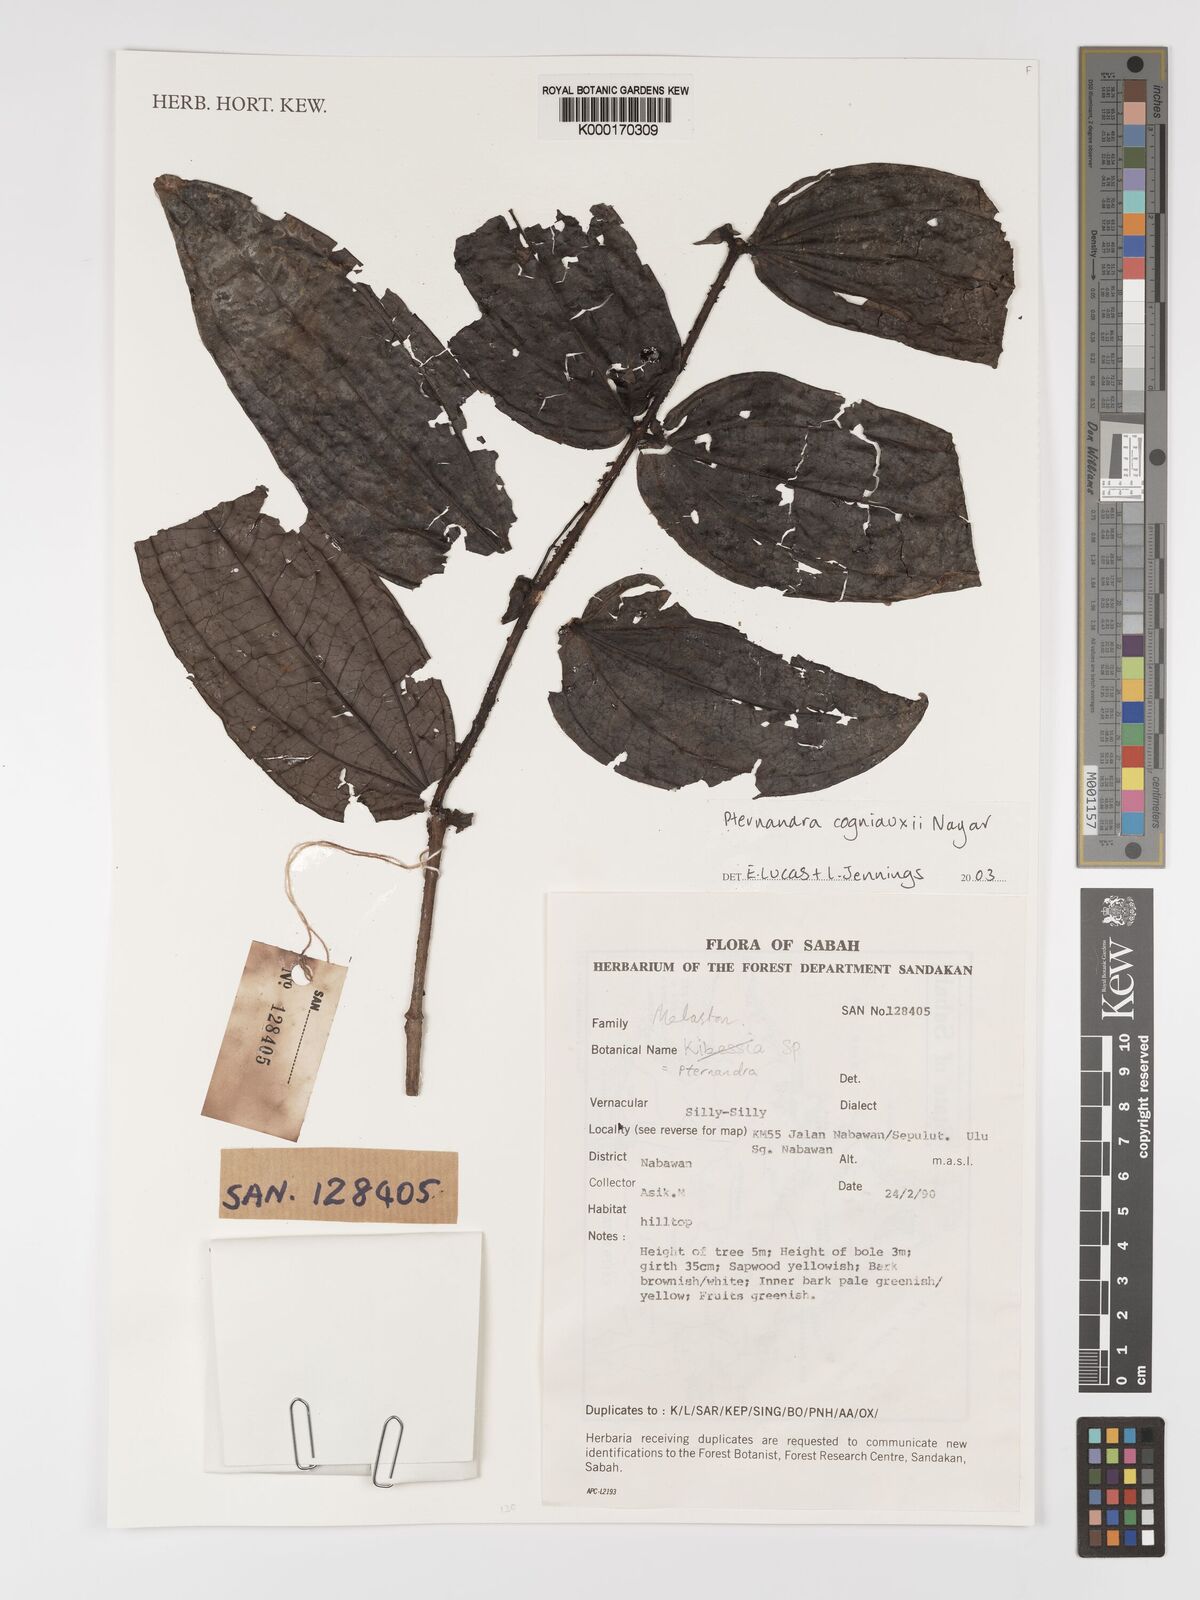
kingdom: Plantae
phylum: Tracheophyta
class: Magnoliopsida
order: Myrtales
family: Melastomataceae
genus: Pternandra
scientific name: Pternandra cogniauxii
